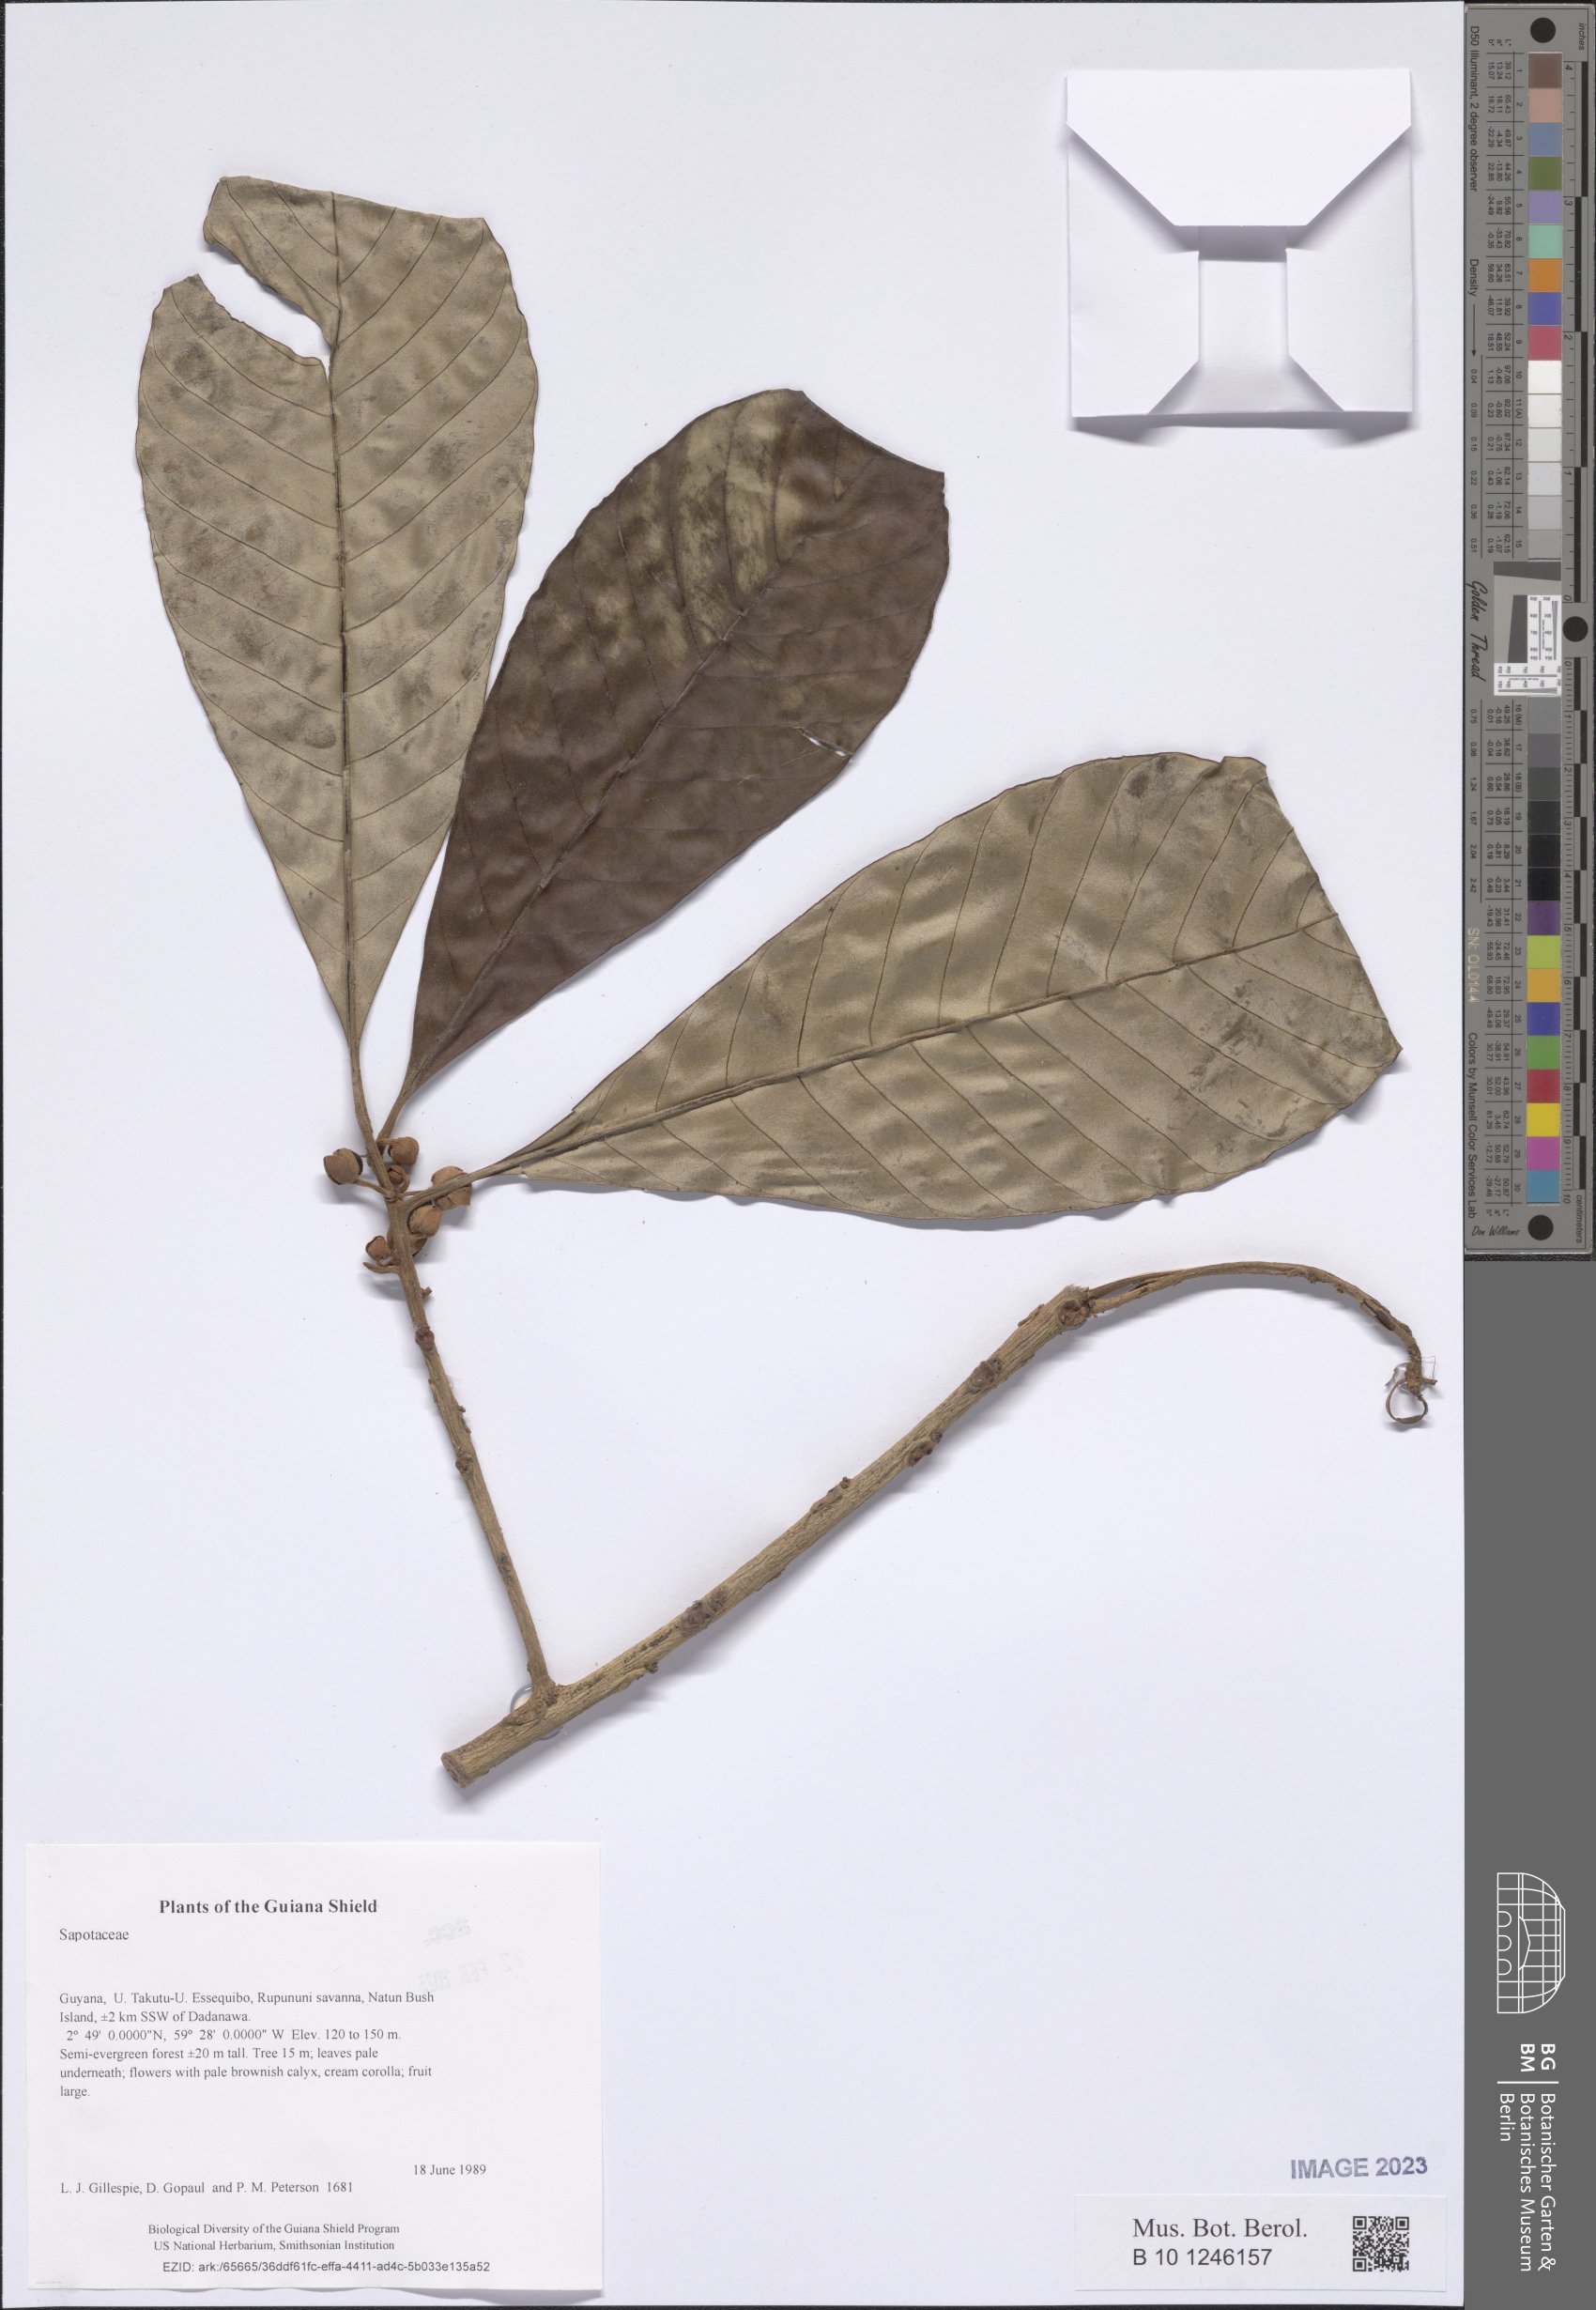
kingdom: Plantae
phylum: Tracheophyta
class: Magnoliopsida
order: Ericales
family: Sapotaceae
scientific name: Sapotaceae
